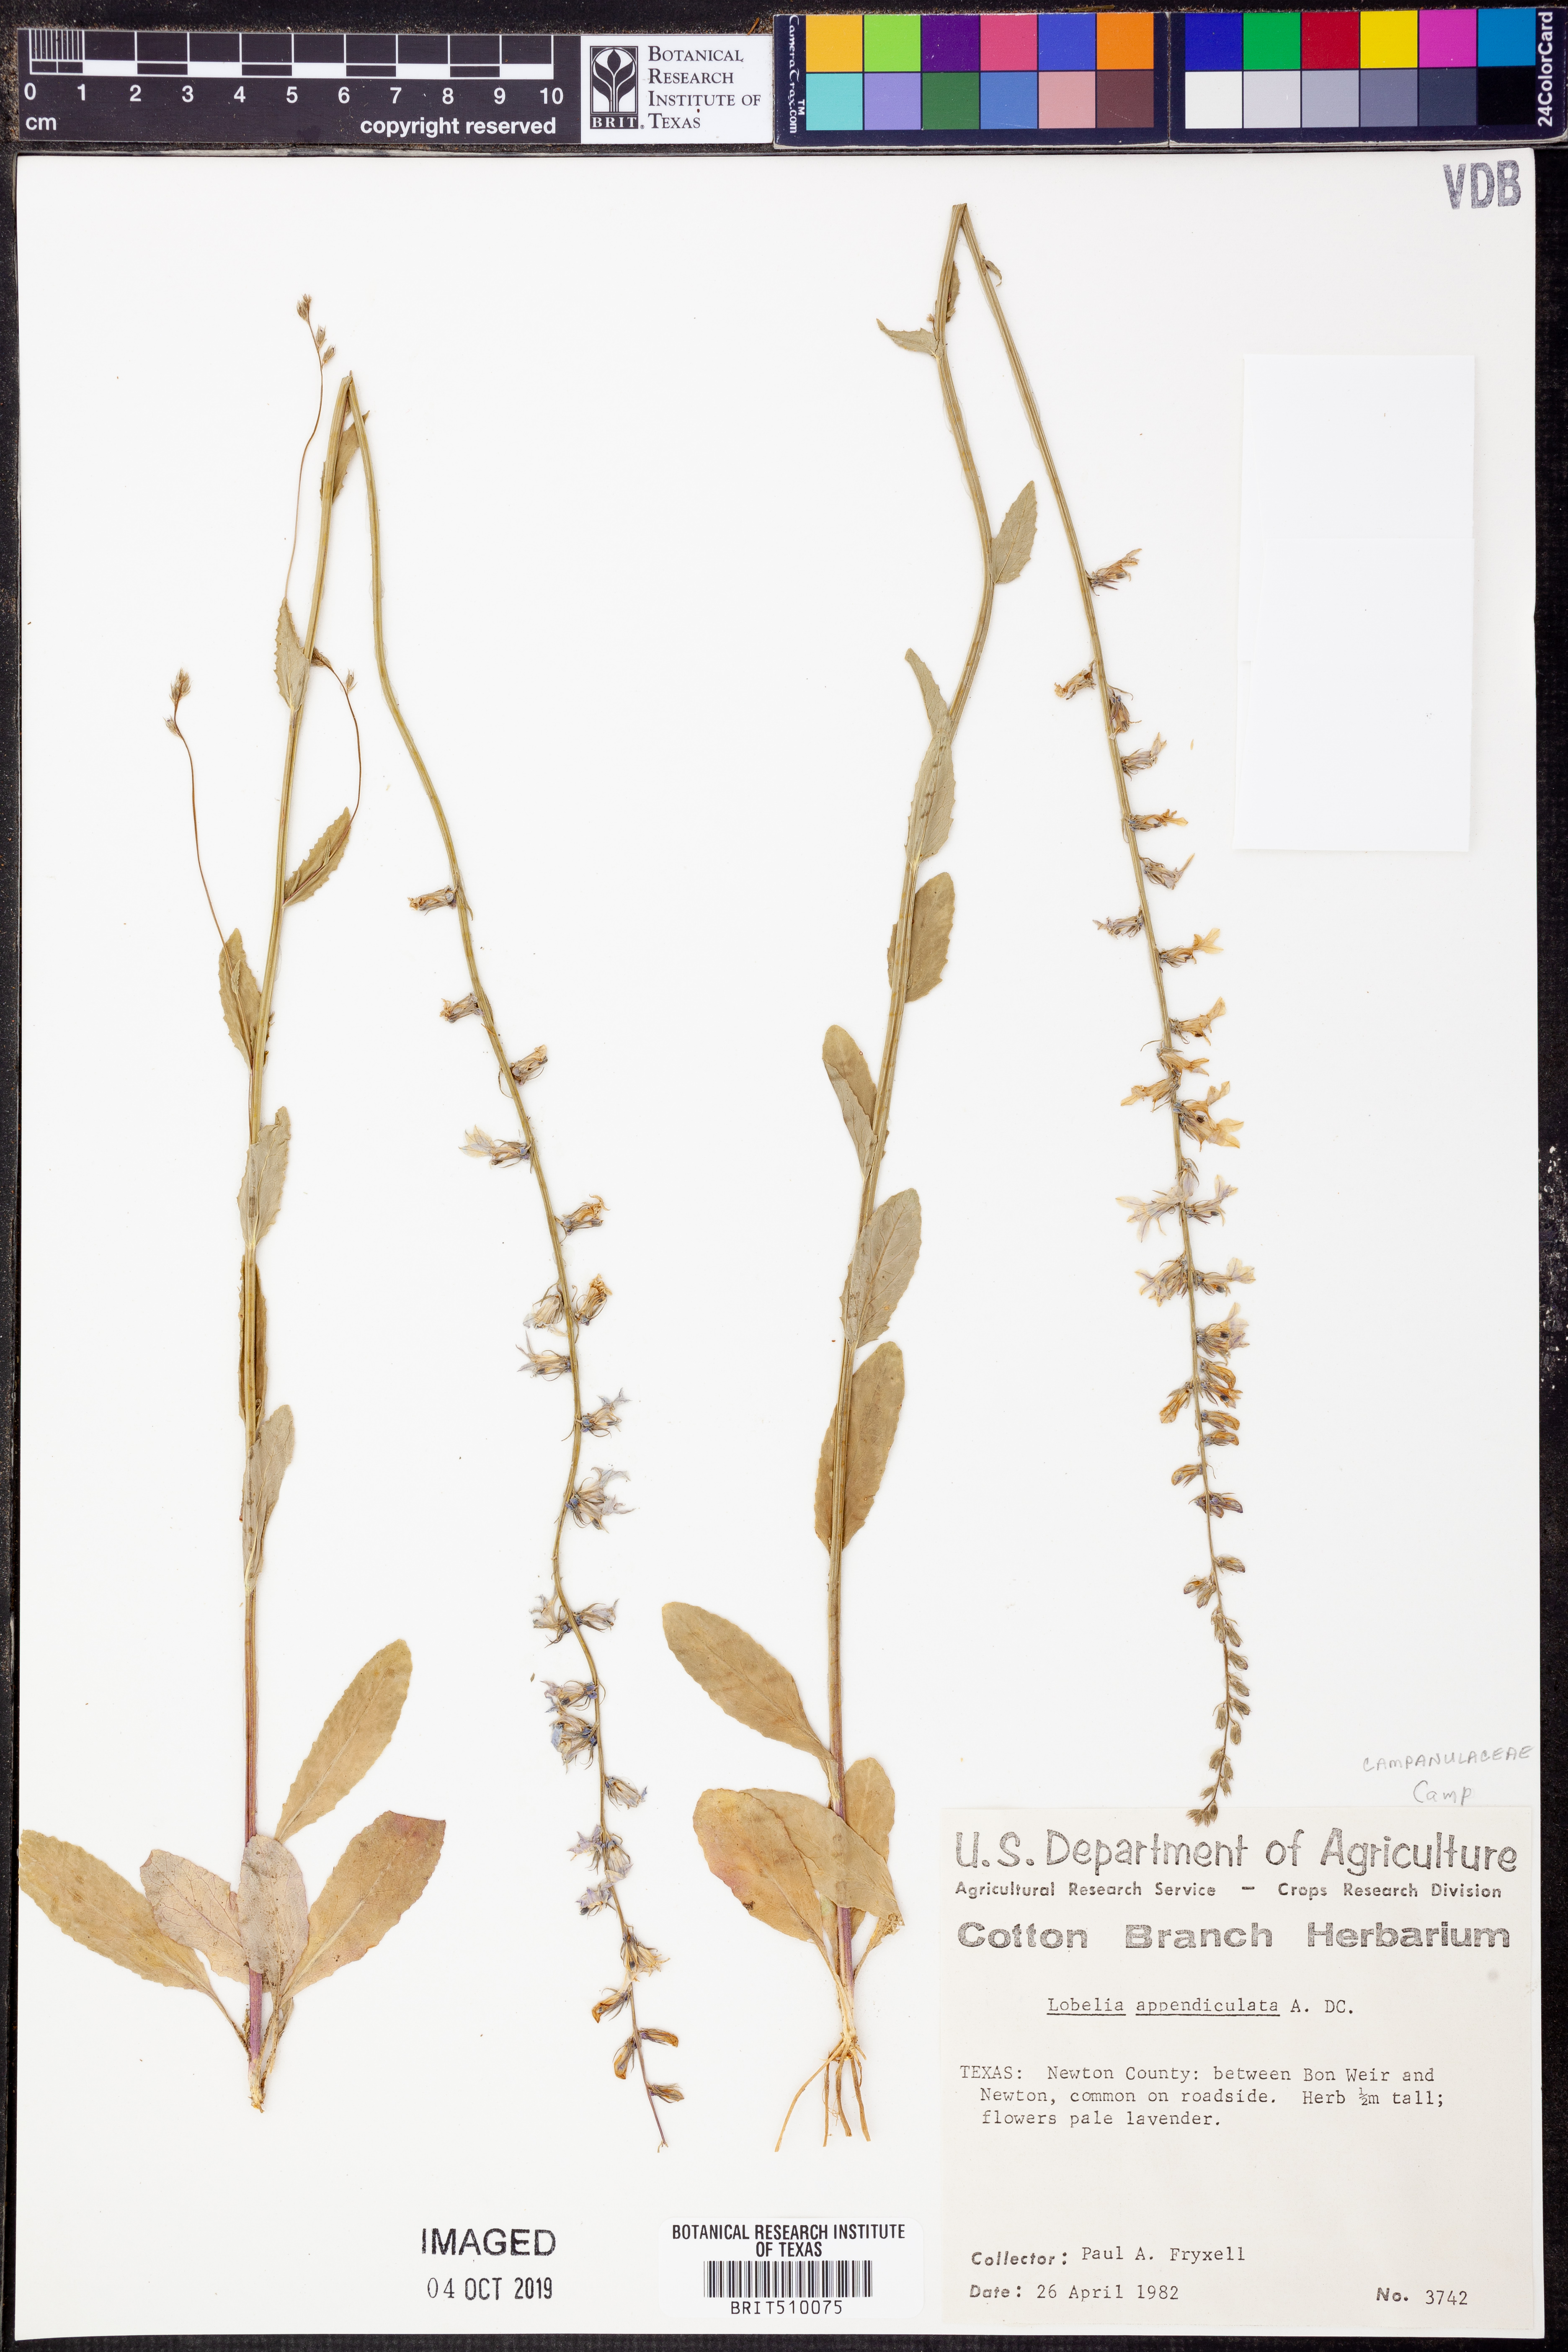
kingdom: Plantae
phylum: Tracheophyta
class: Magnoliopsida
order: Asterales
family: Campanulaceae
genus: Lobelia
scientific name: Lobelia appendiculata
